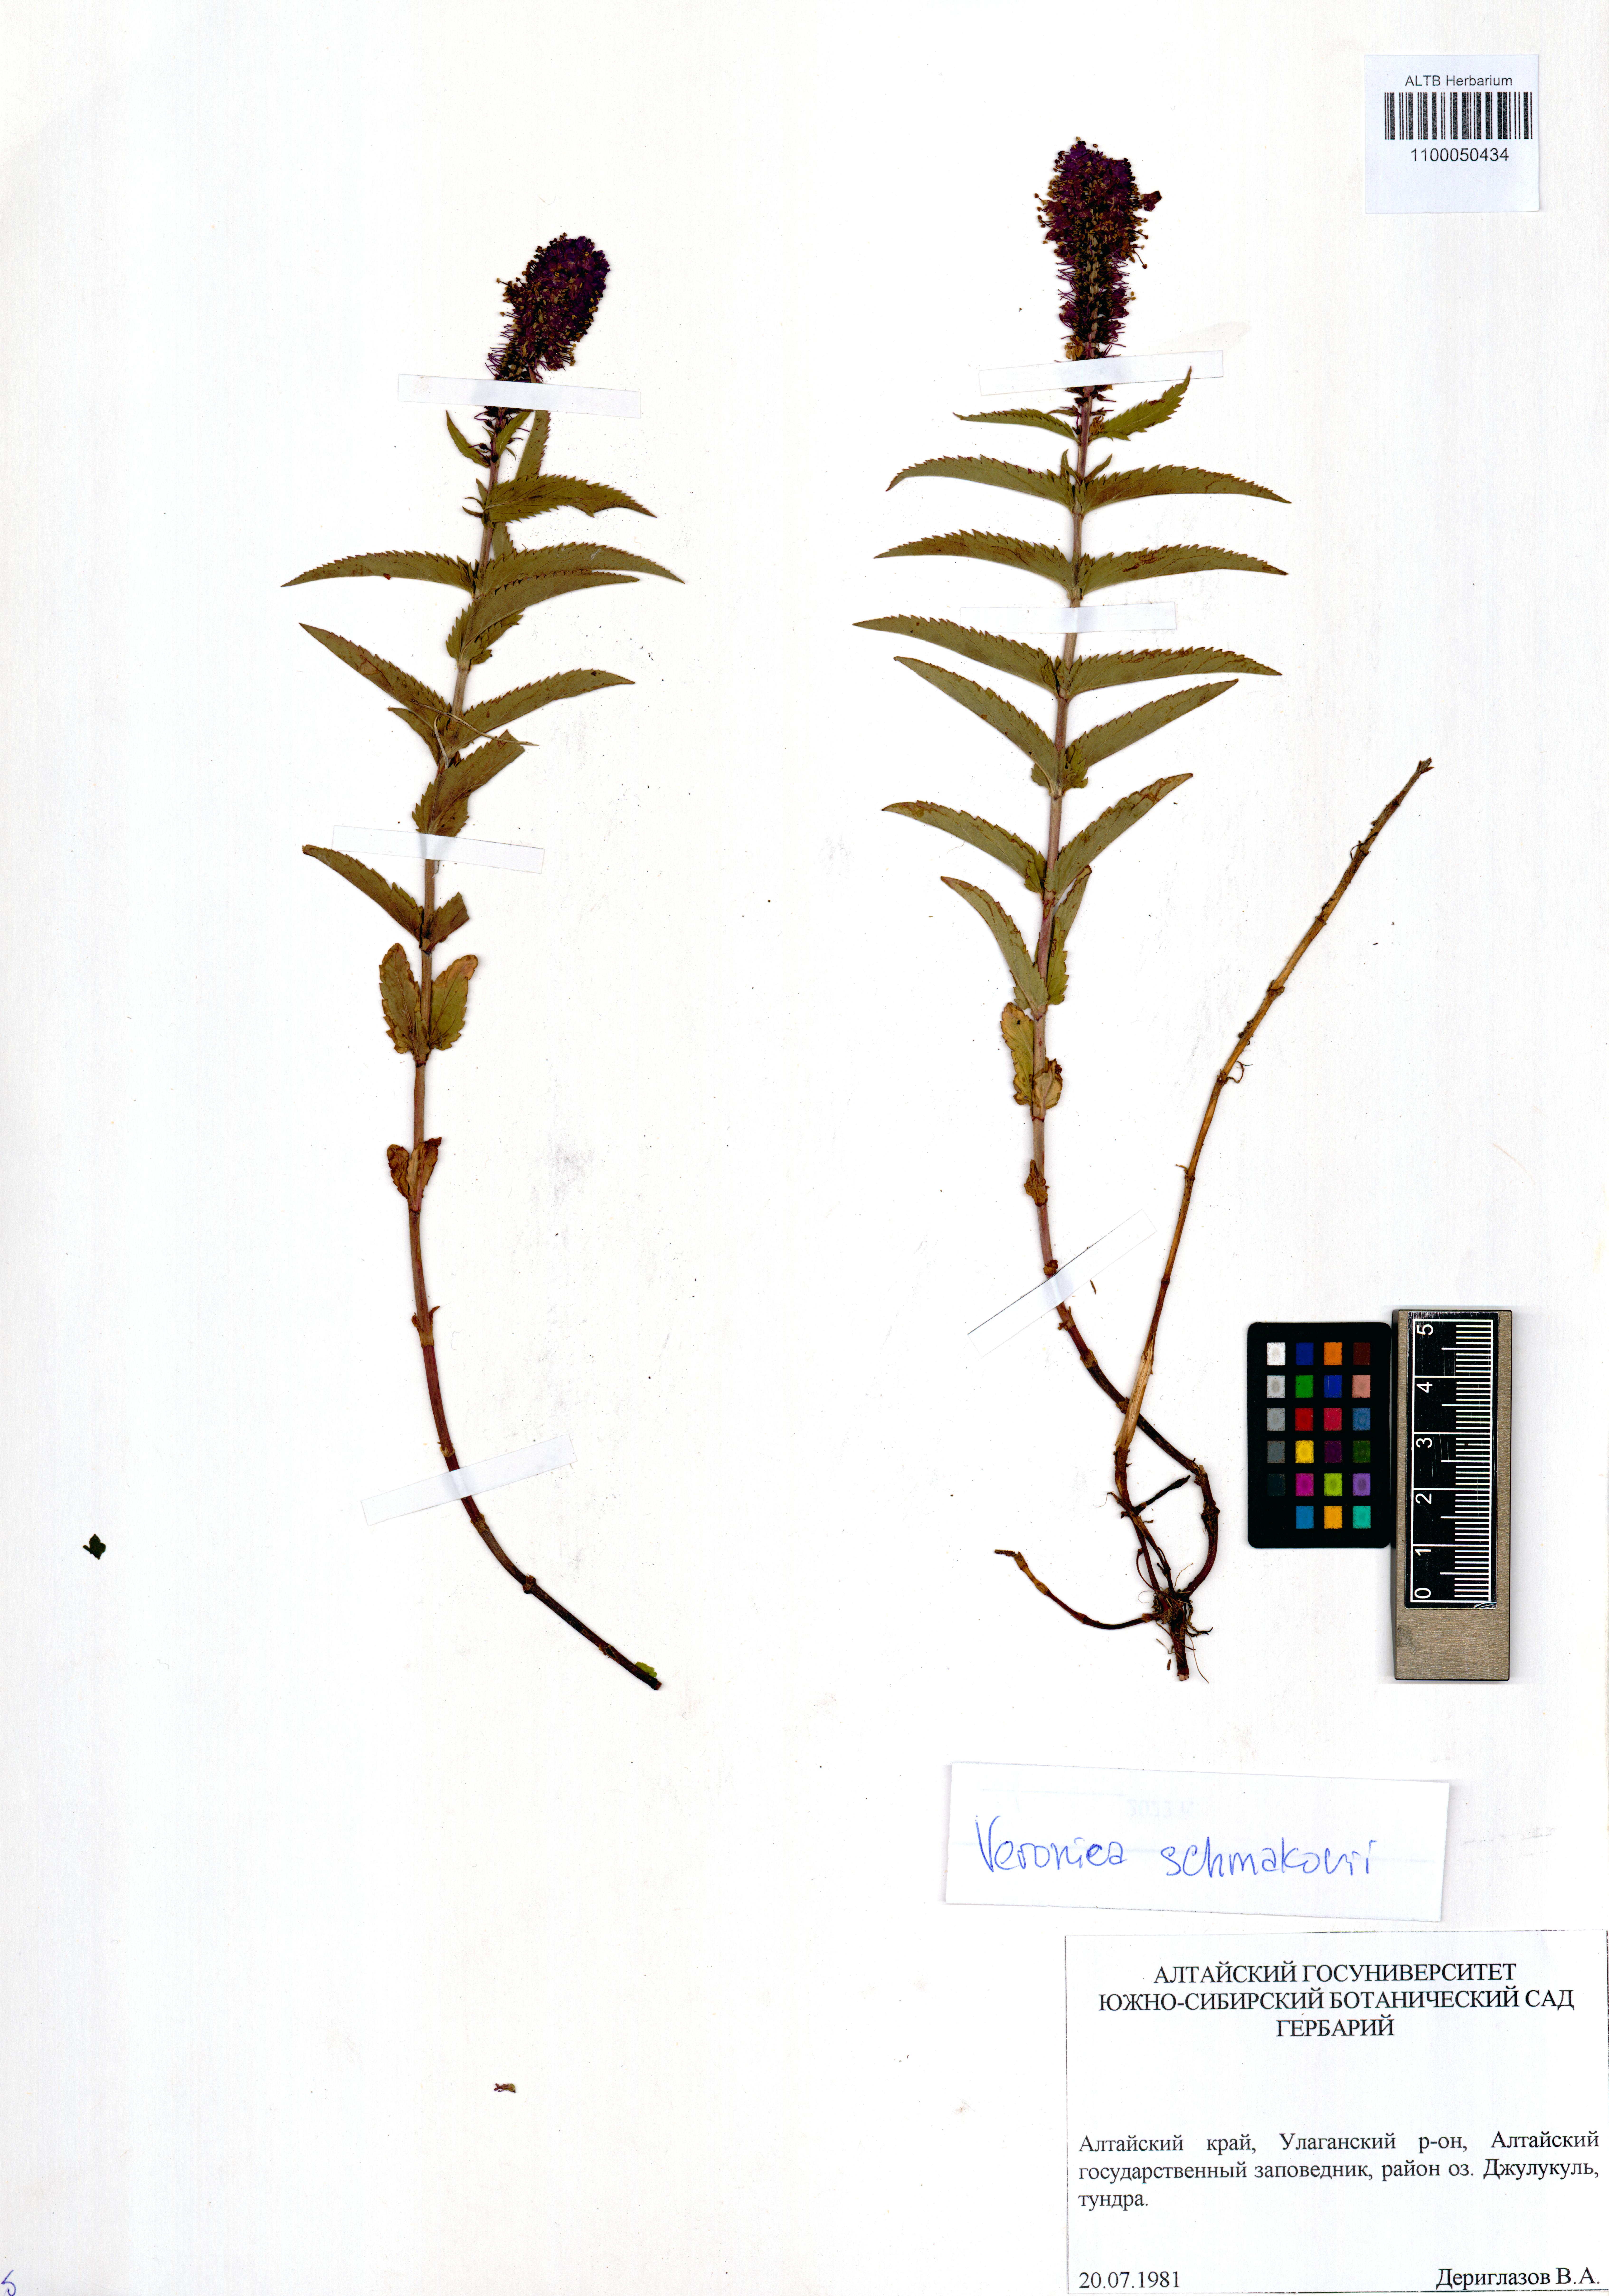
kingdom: Plantae
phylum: Tracheophyta
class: Magnoliopsida
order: Lamiales
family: Plantaginaceae
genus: Veronica
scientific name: Veronica schmakovii
